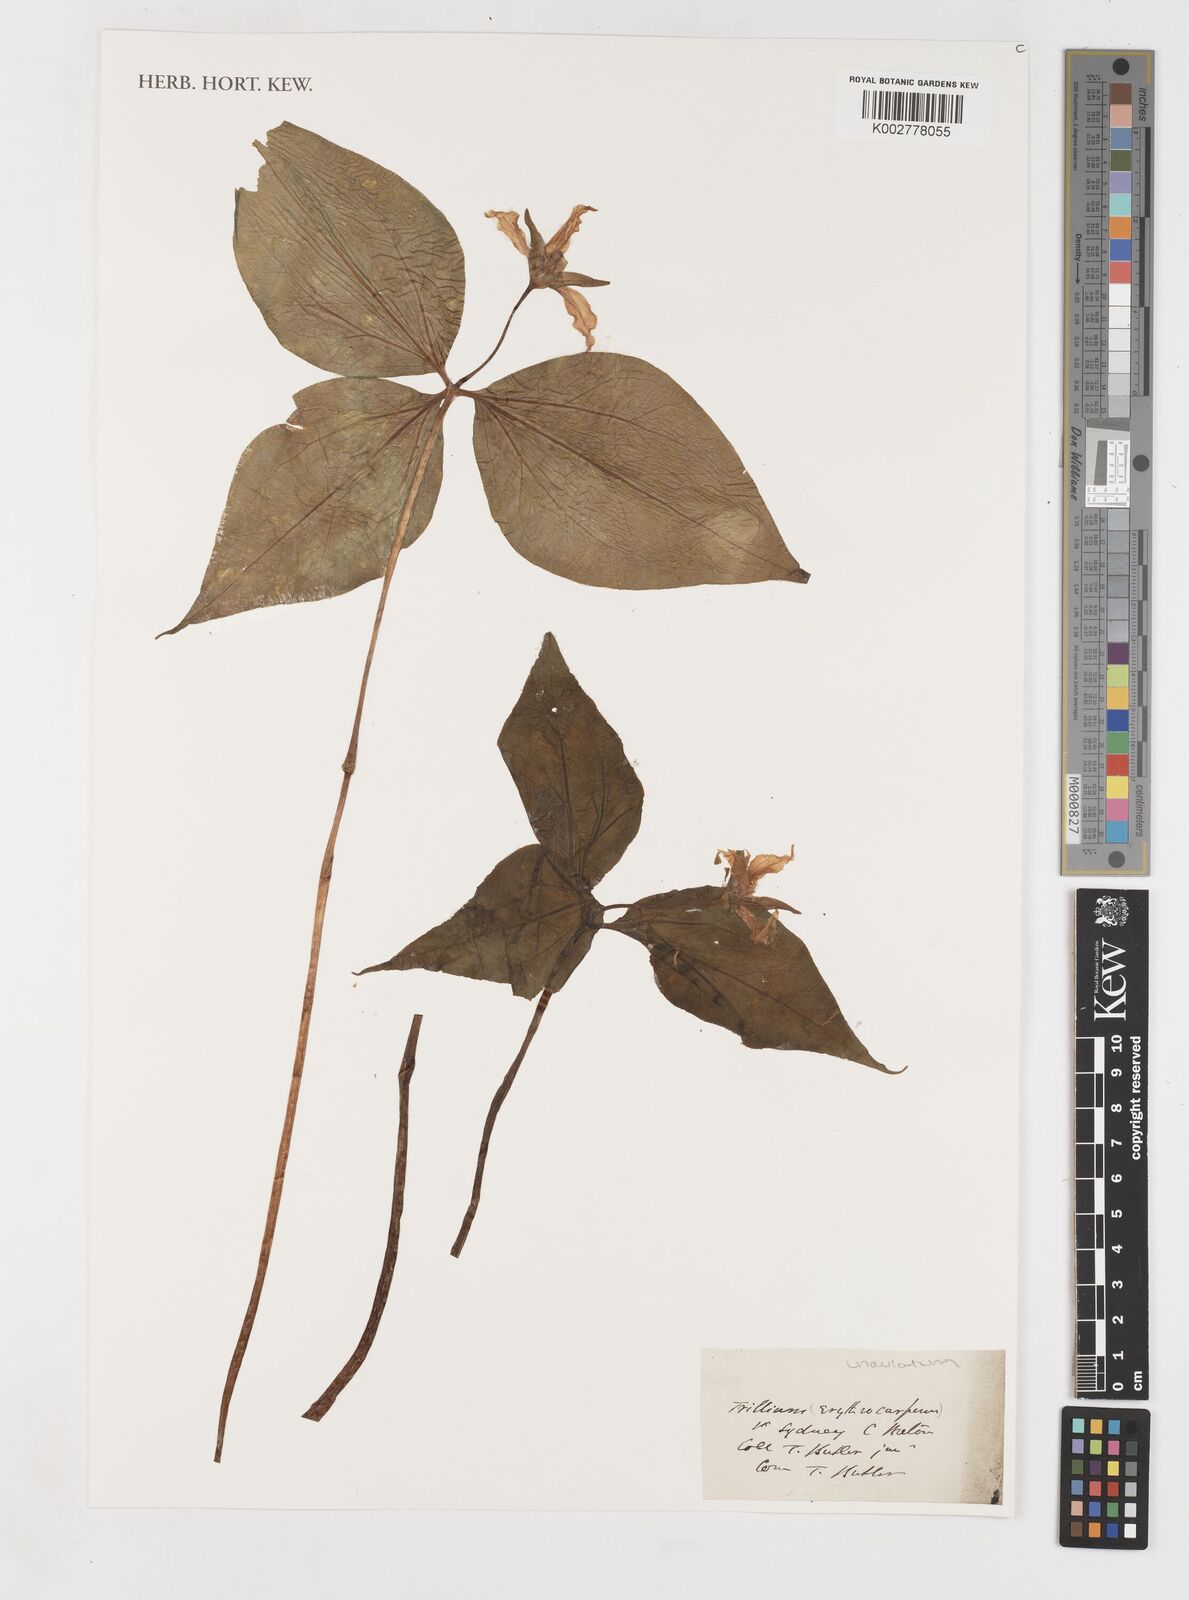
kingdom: Plantae
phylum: Tracheophyta
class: Liliopsida
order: Liliales
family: Melanthiaceae
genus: Trillium
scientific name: Trillium undulatum
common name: Paint trillium
